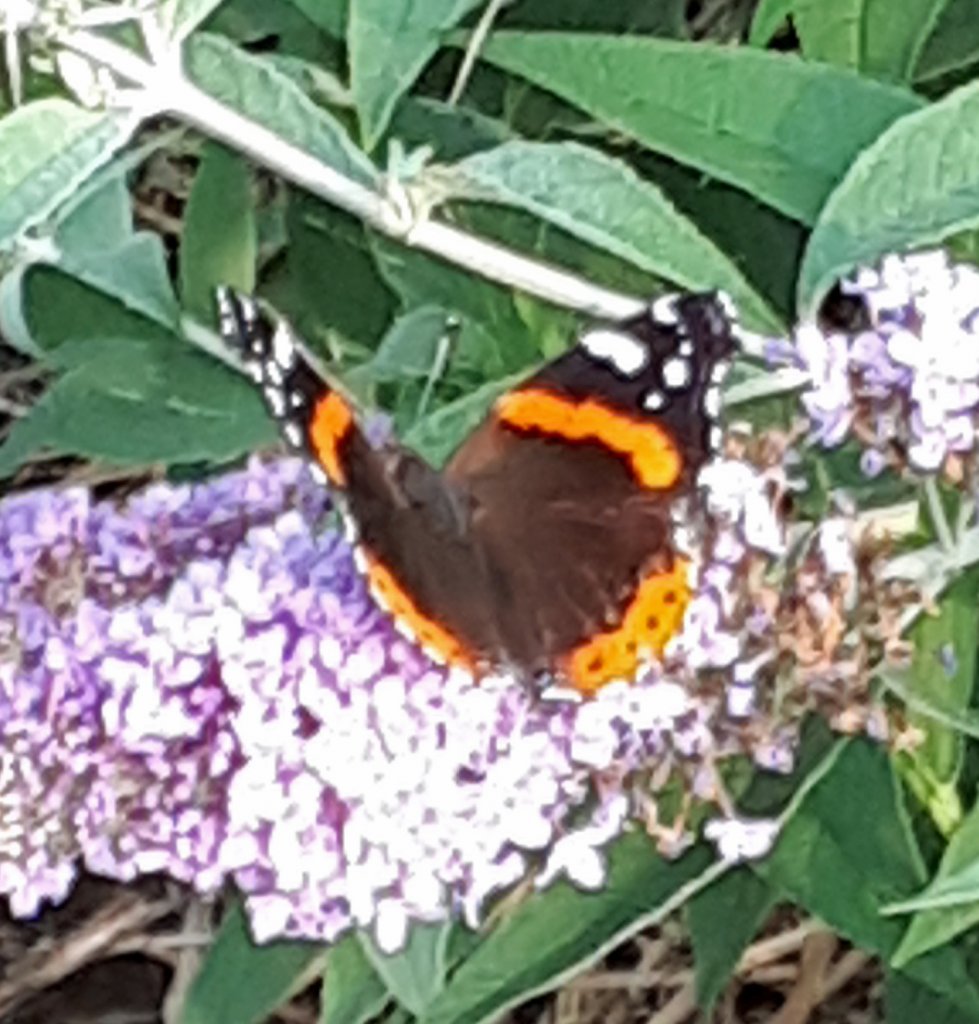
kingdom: Animalia
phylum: Arthropoda
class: Insecta
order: Lepidoptera
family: Nymphalidae
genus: Vanessa
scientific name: Vanessa atalanta
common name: Red Admiral
